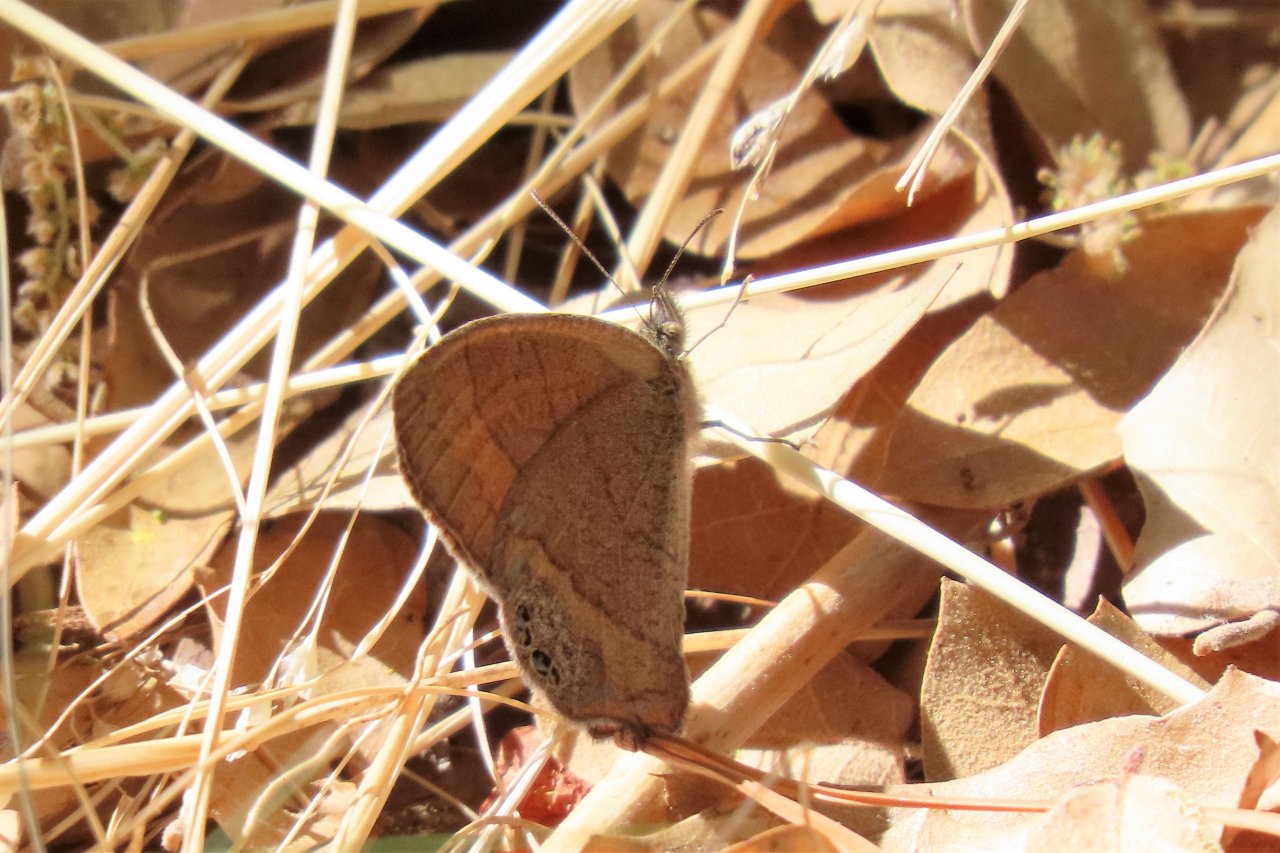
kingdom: Animalia
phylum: Arthropoda
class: Insecta
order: Lepidoptera
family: Nymphalidae
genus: Euptychia
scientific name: Euptychia pyracmon
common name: Nabokov's Satyr
